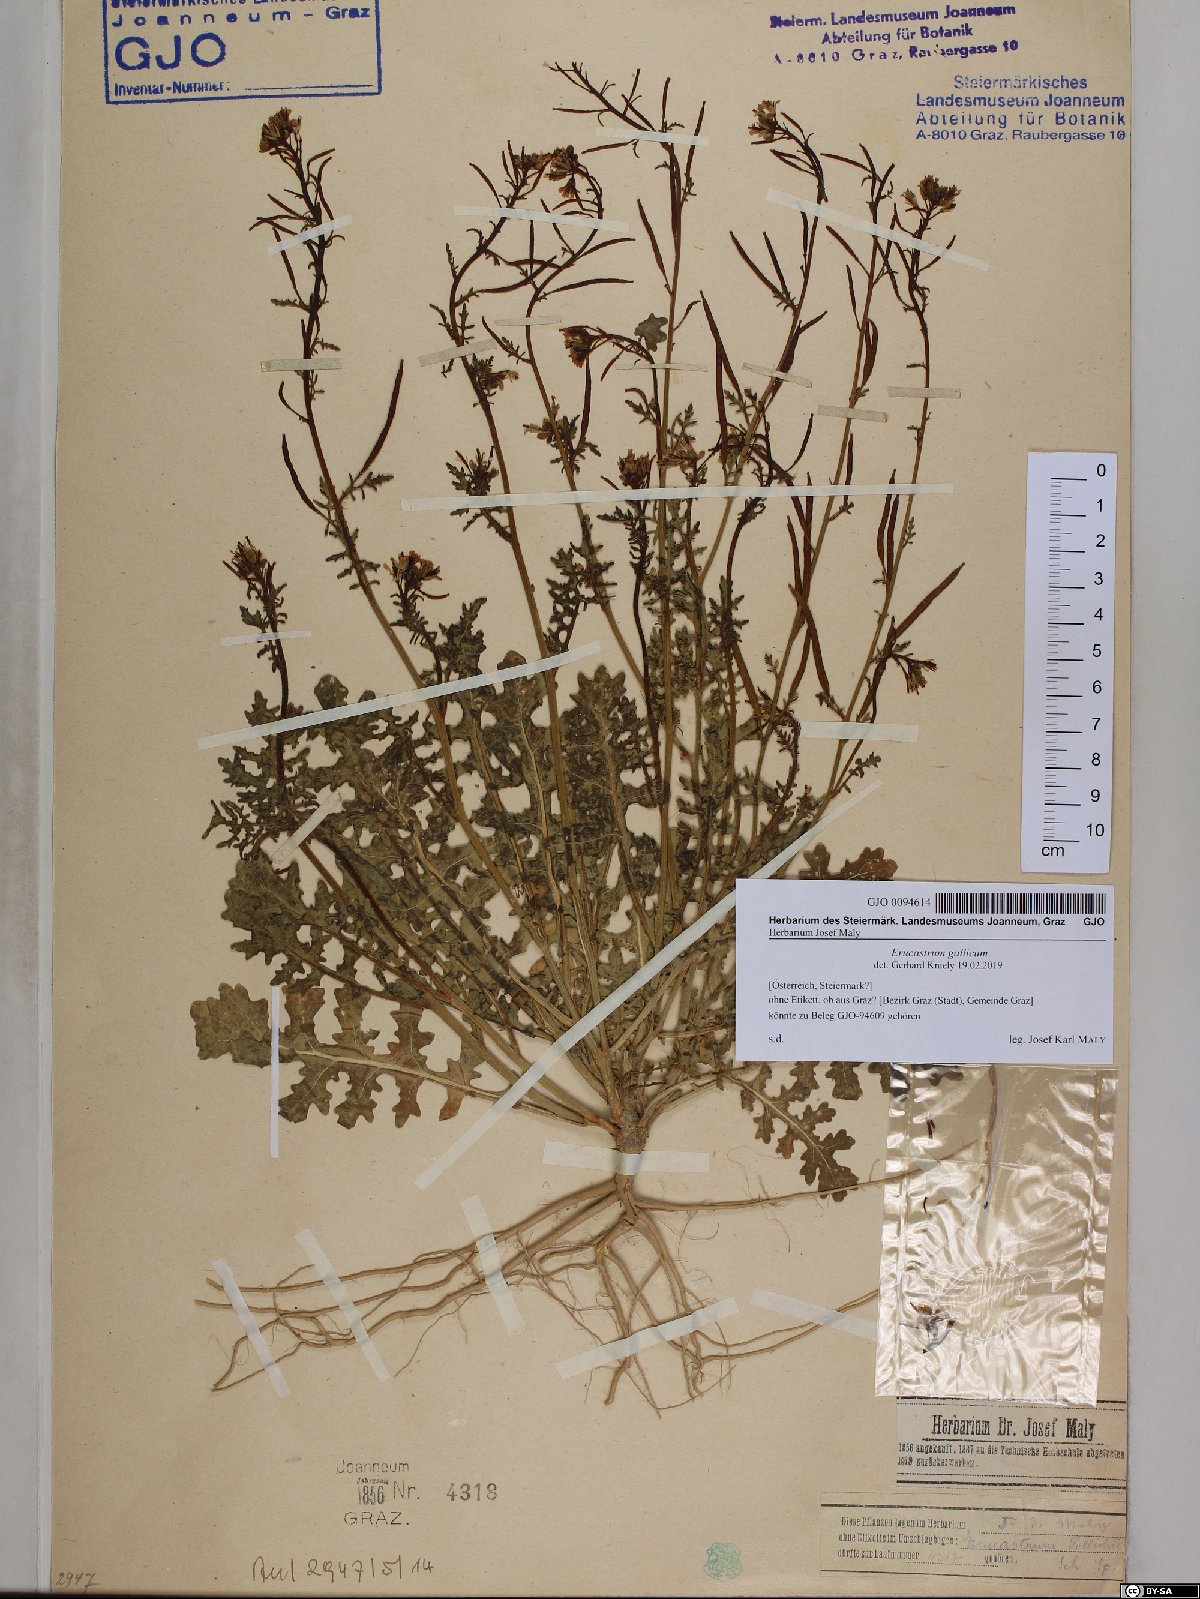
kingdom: Plantae
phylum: Tracheophyta
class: Magnoliopsida
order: Brassicales
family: Brassicaceae
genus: Erucastrum
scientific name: Erucastrum gallicum
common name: Hairy rocket
